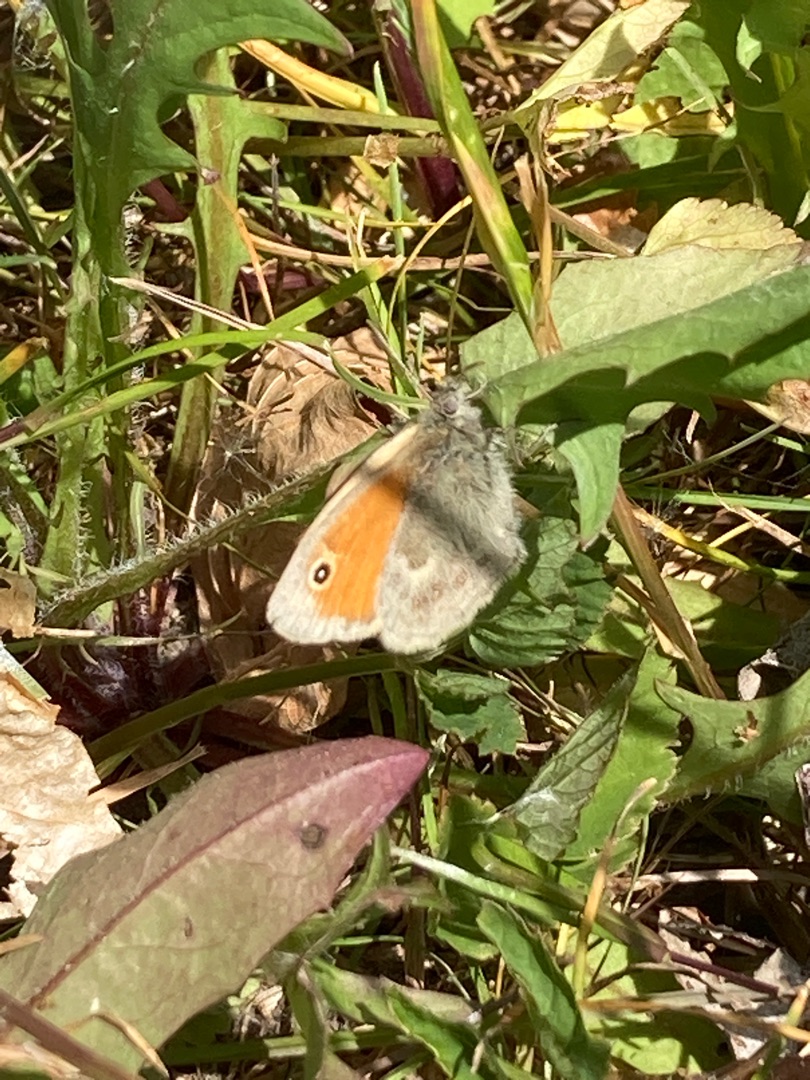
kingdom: Animalia
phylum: Arthropoda
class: Insecta
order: Lepidoptera
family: Nymphalidae
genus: Coenonympha
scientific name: Coenonympha pamphilus
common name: Okkergul randøje
